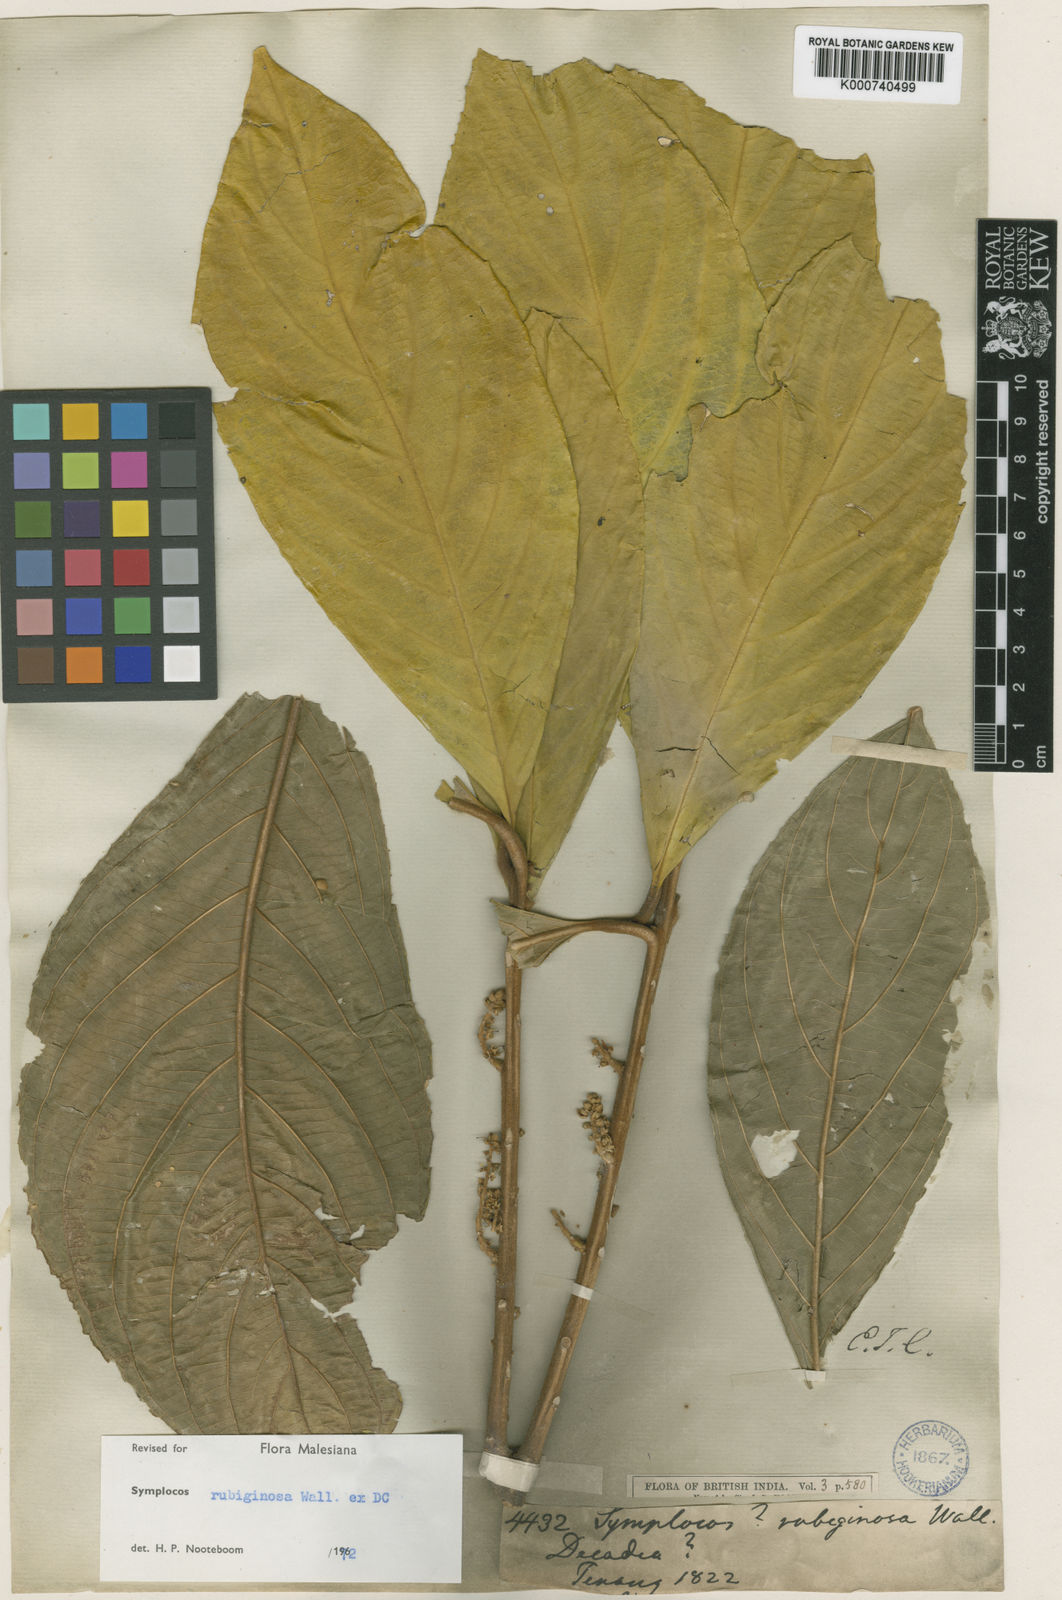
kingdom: Plantae
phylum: Tracheophyta
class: Magnoliopsida
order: Ericales
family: Symplocaceae
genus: Symplocos
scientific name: Symplocos rubiginosa
